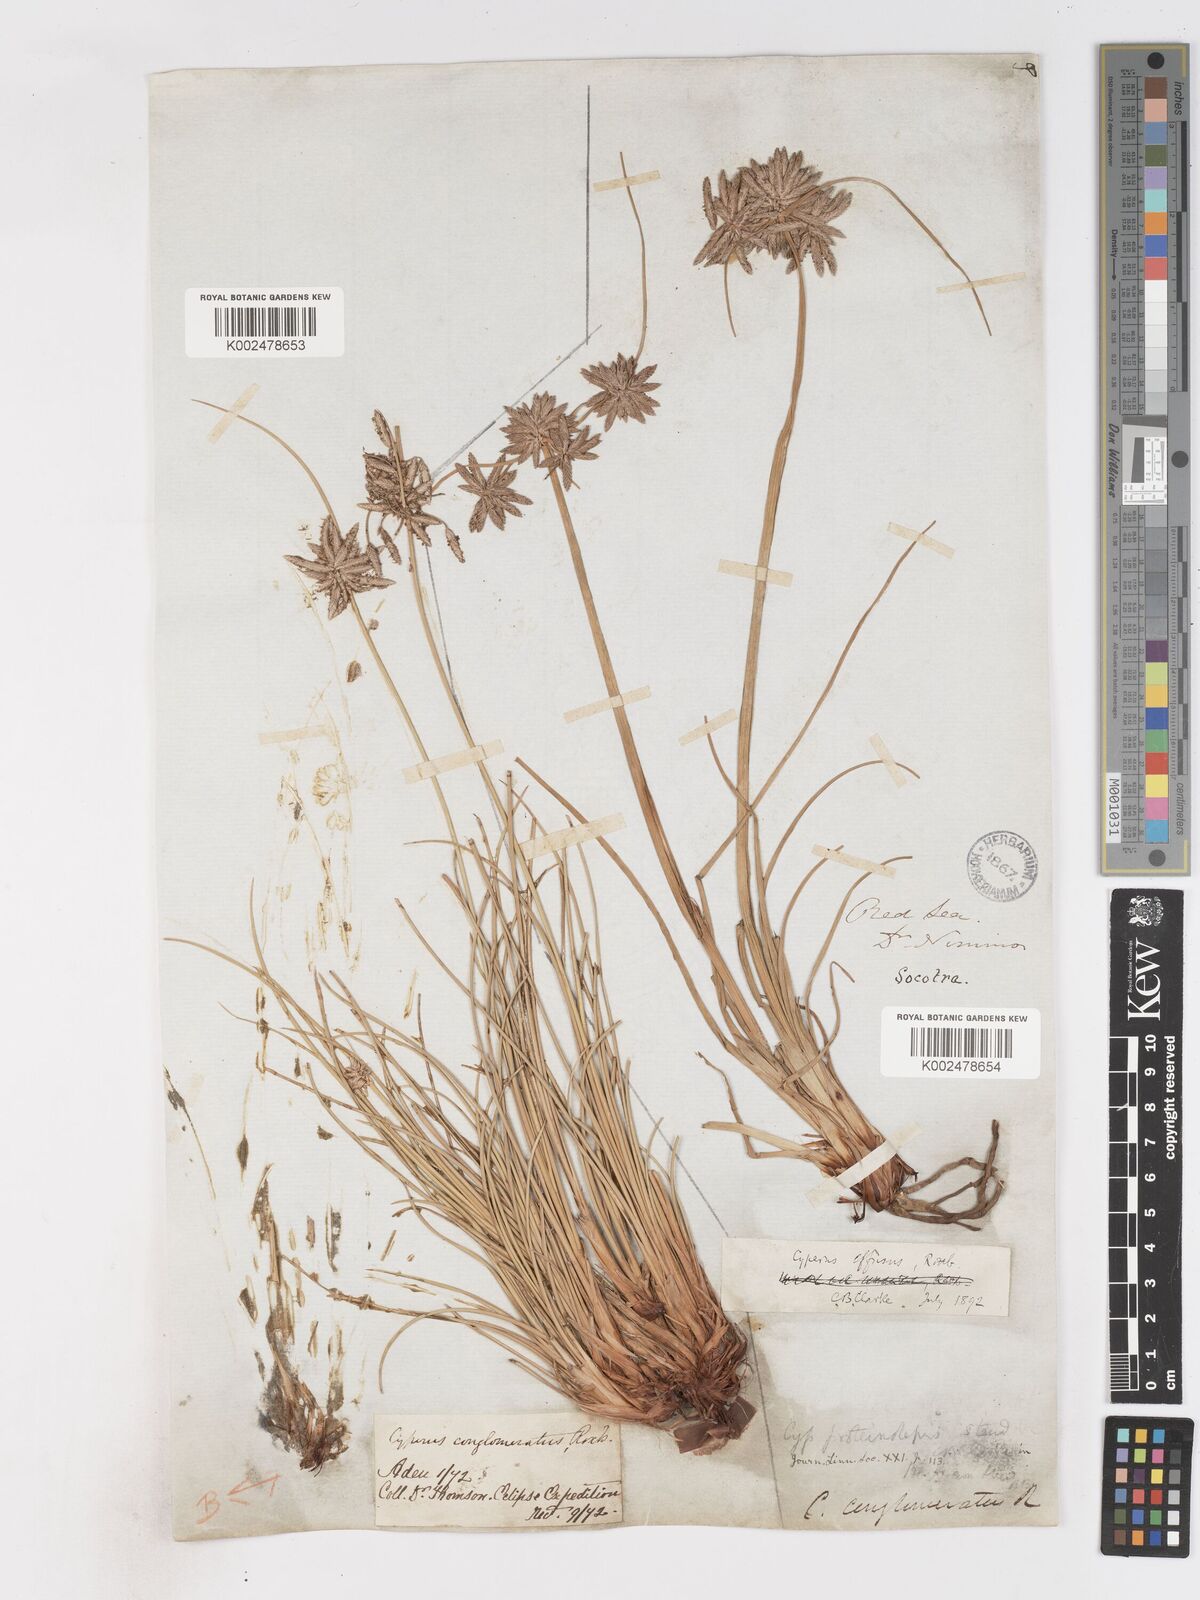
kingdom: Plantae
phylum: Tracheophyta
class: Liliopsida
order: Poales
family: Cyperaceae
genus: Cyperus
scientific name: Cyperus conglomeratus
